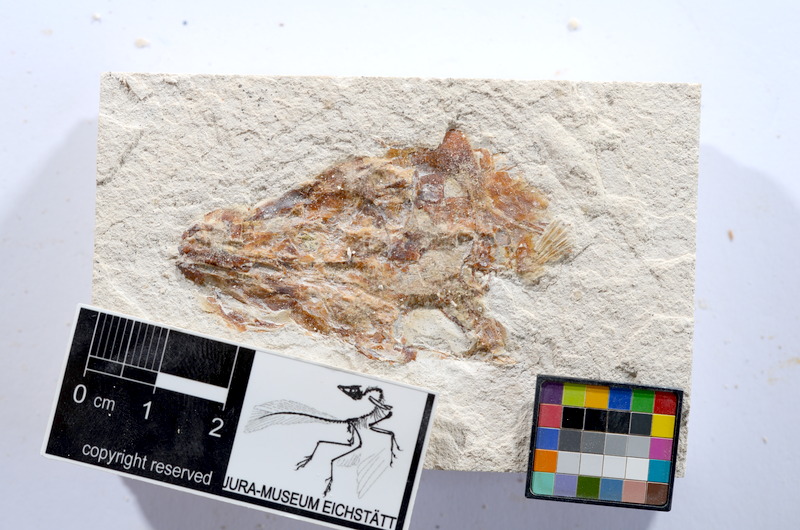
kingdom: Animalia
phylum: Chordata
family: Ascalaboidae
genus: Tharsis
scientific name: Tharsis dubius
